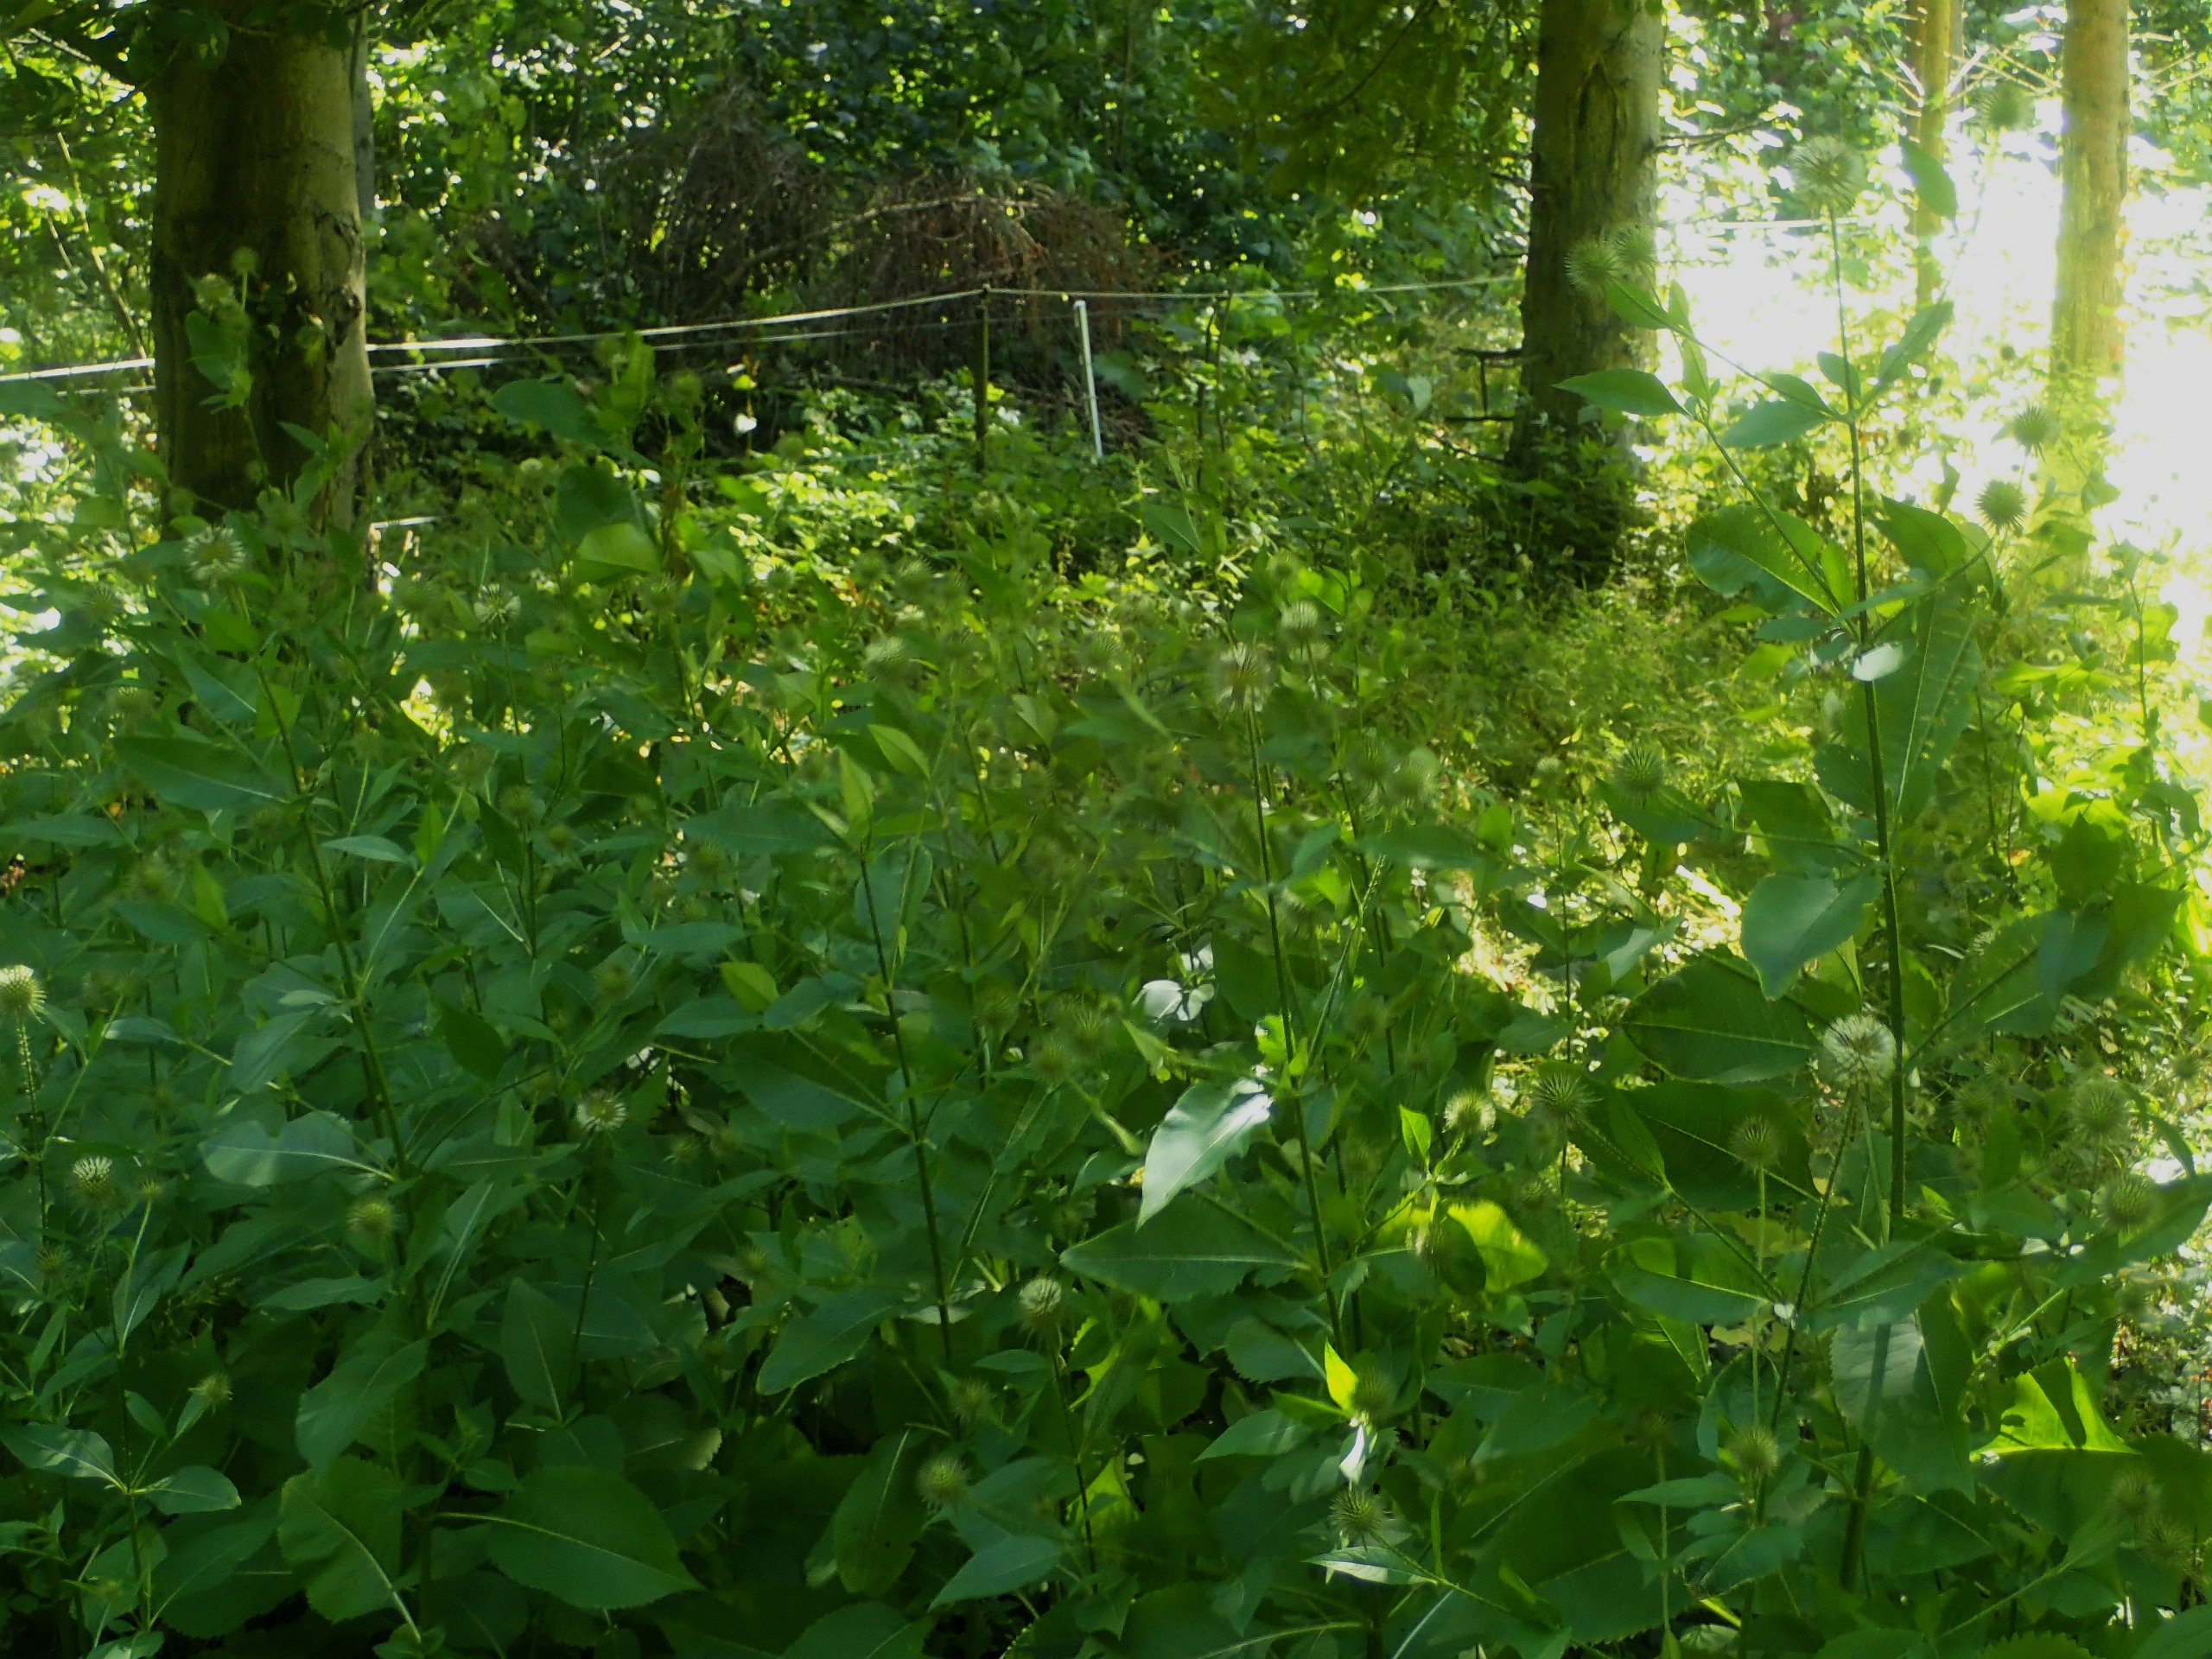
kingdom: Plantae
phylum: Tracheophyta
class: Magnoliopsida
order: Dipsacales
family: Caprifoliaceae
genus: Dipsacus
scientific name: Dipsacus strigosus
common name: Pindsvin-kartebolle
